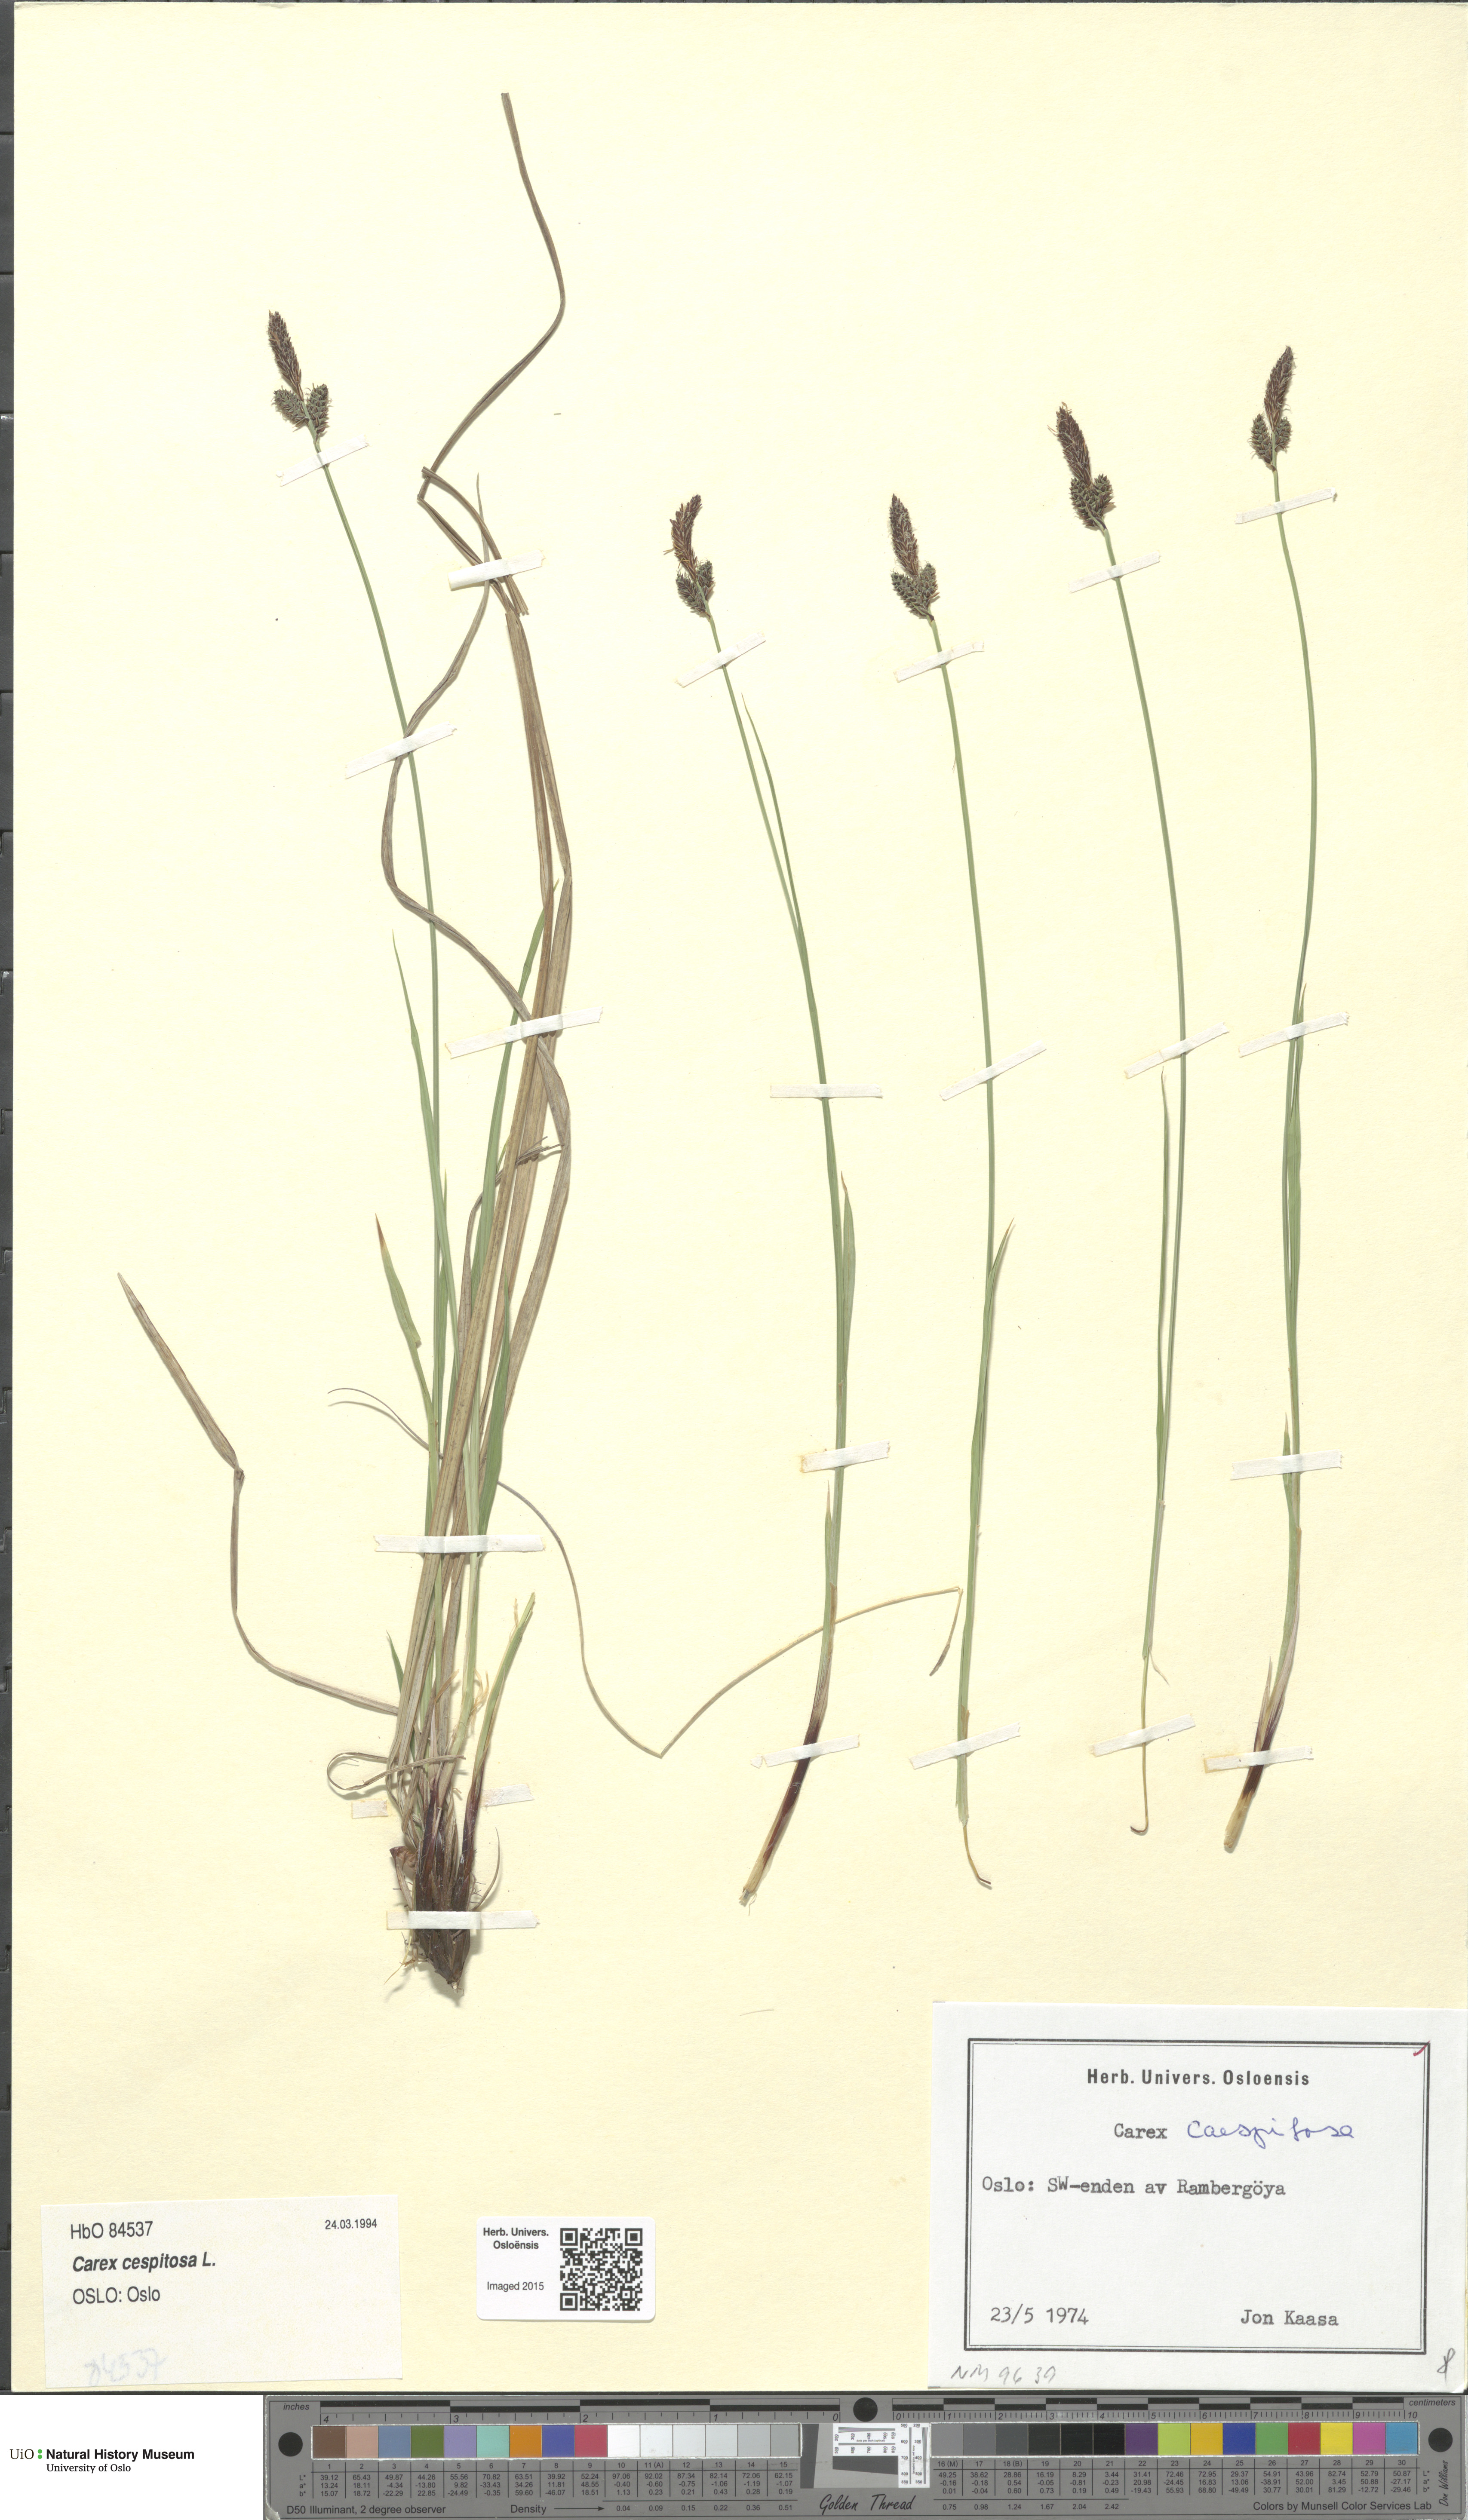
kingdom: Plantae
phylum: Tracheophyta
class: Liliopsida
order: Poales
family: Cyperaceae
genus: Carex
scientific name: Carex cespitosa
